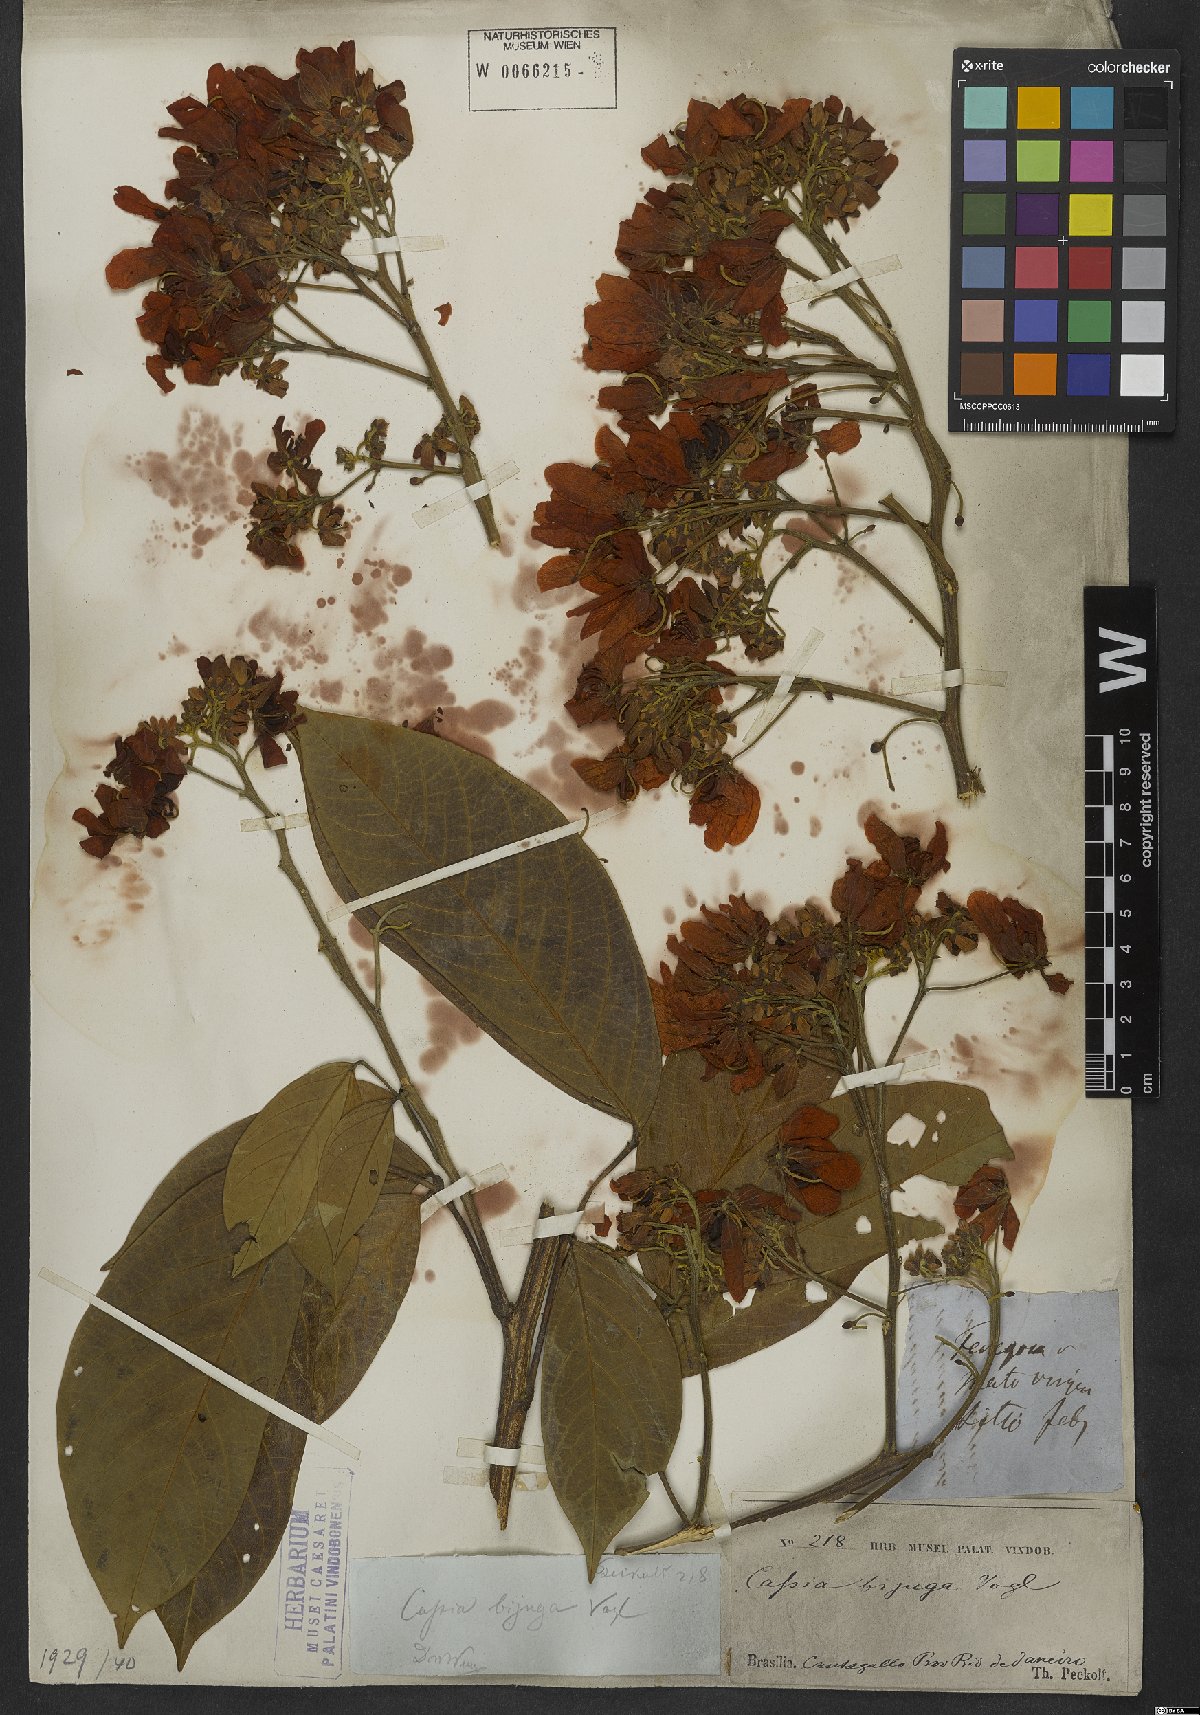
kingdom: Plantae
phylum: Tracheophyta
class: Magnoliopsida
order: Fabales
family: Fabaceae
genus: Senna
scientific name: Senna macranthera
